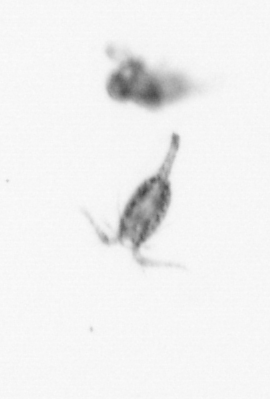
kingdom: Animalia
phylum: Arthropoda
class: Copepoda
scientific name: Copepoda
